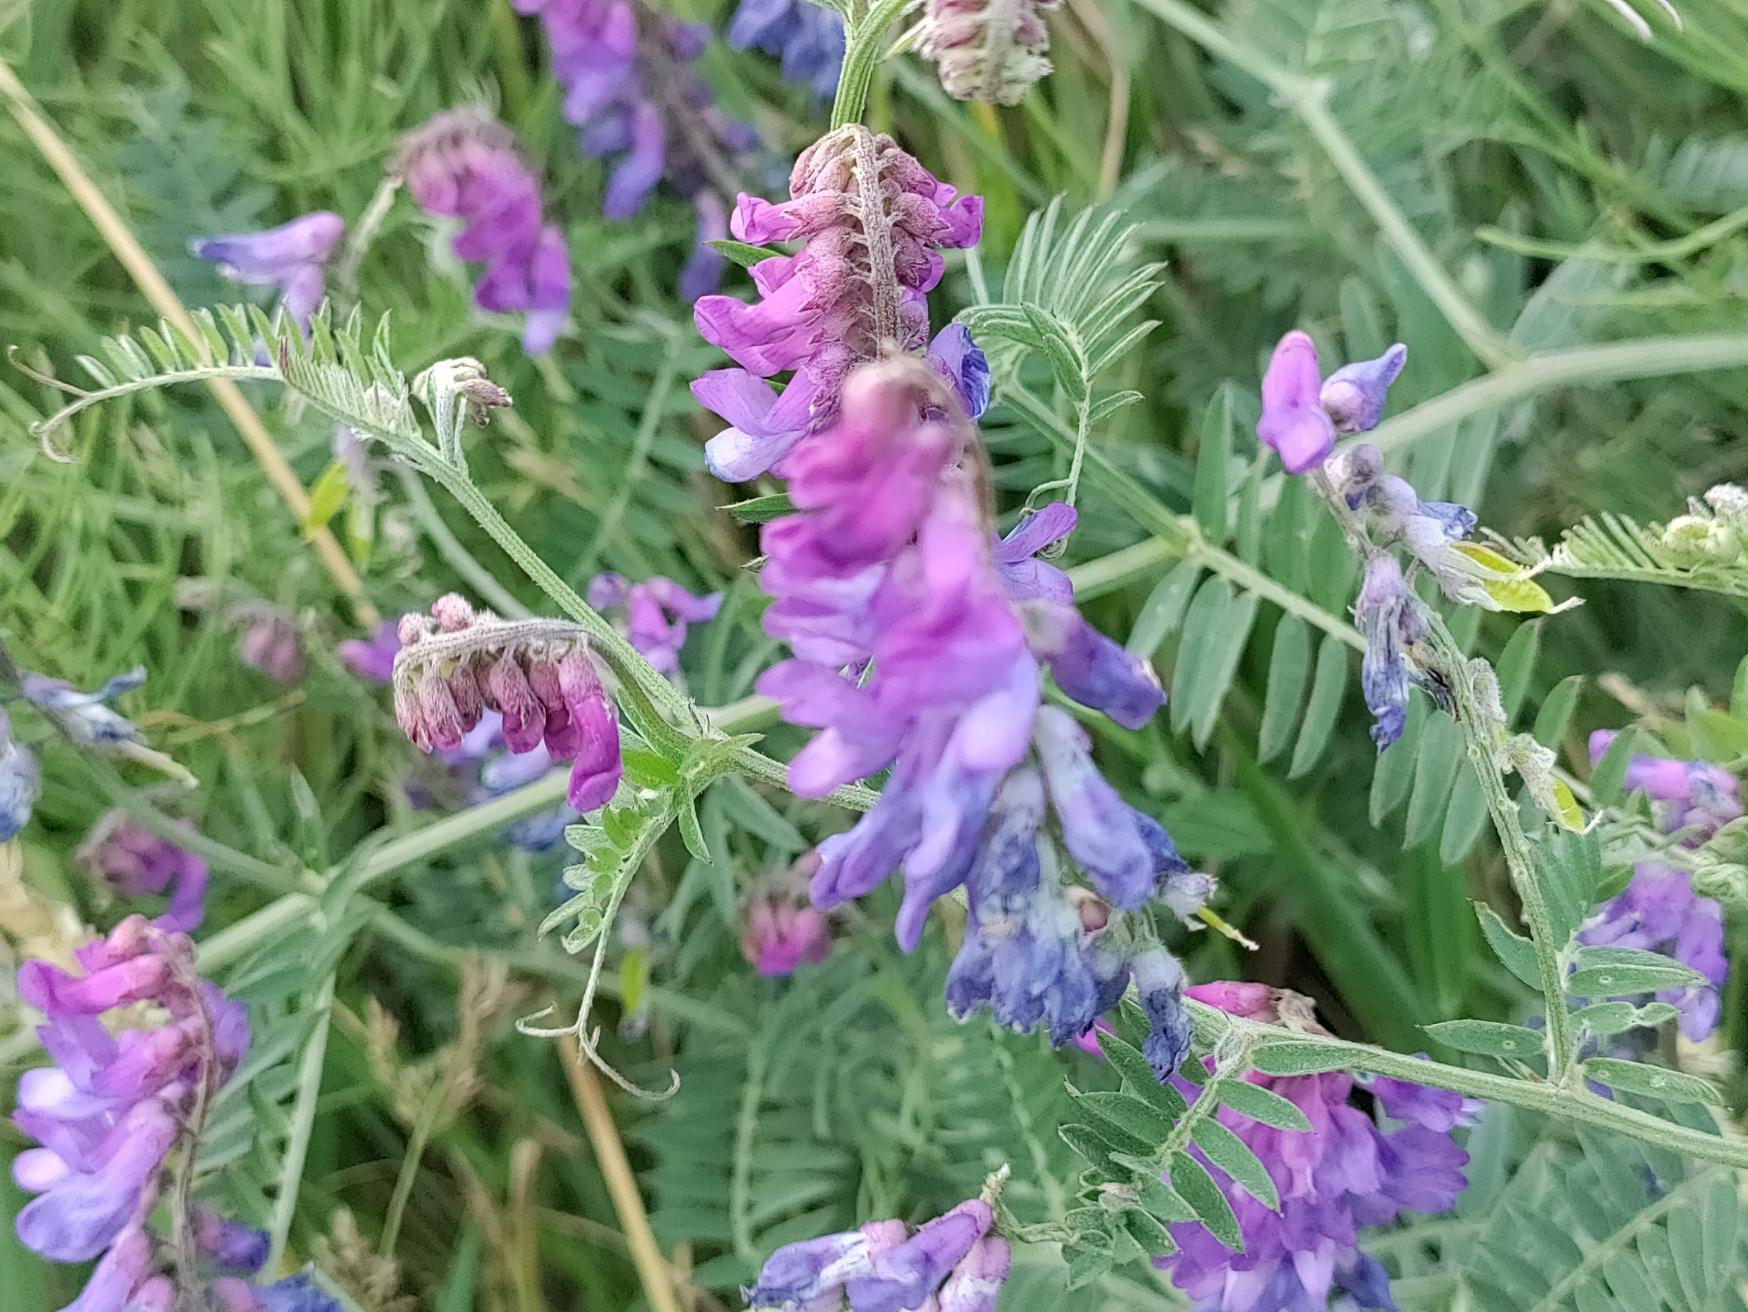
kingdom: Plantae
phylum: Tracheophyta
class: Magnoliopsida
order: Fabales
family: Fabaceae
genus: Vicia
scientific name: Vicia cracca
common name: Muse-vikke
